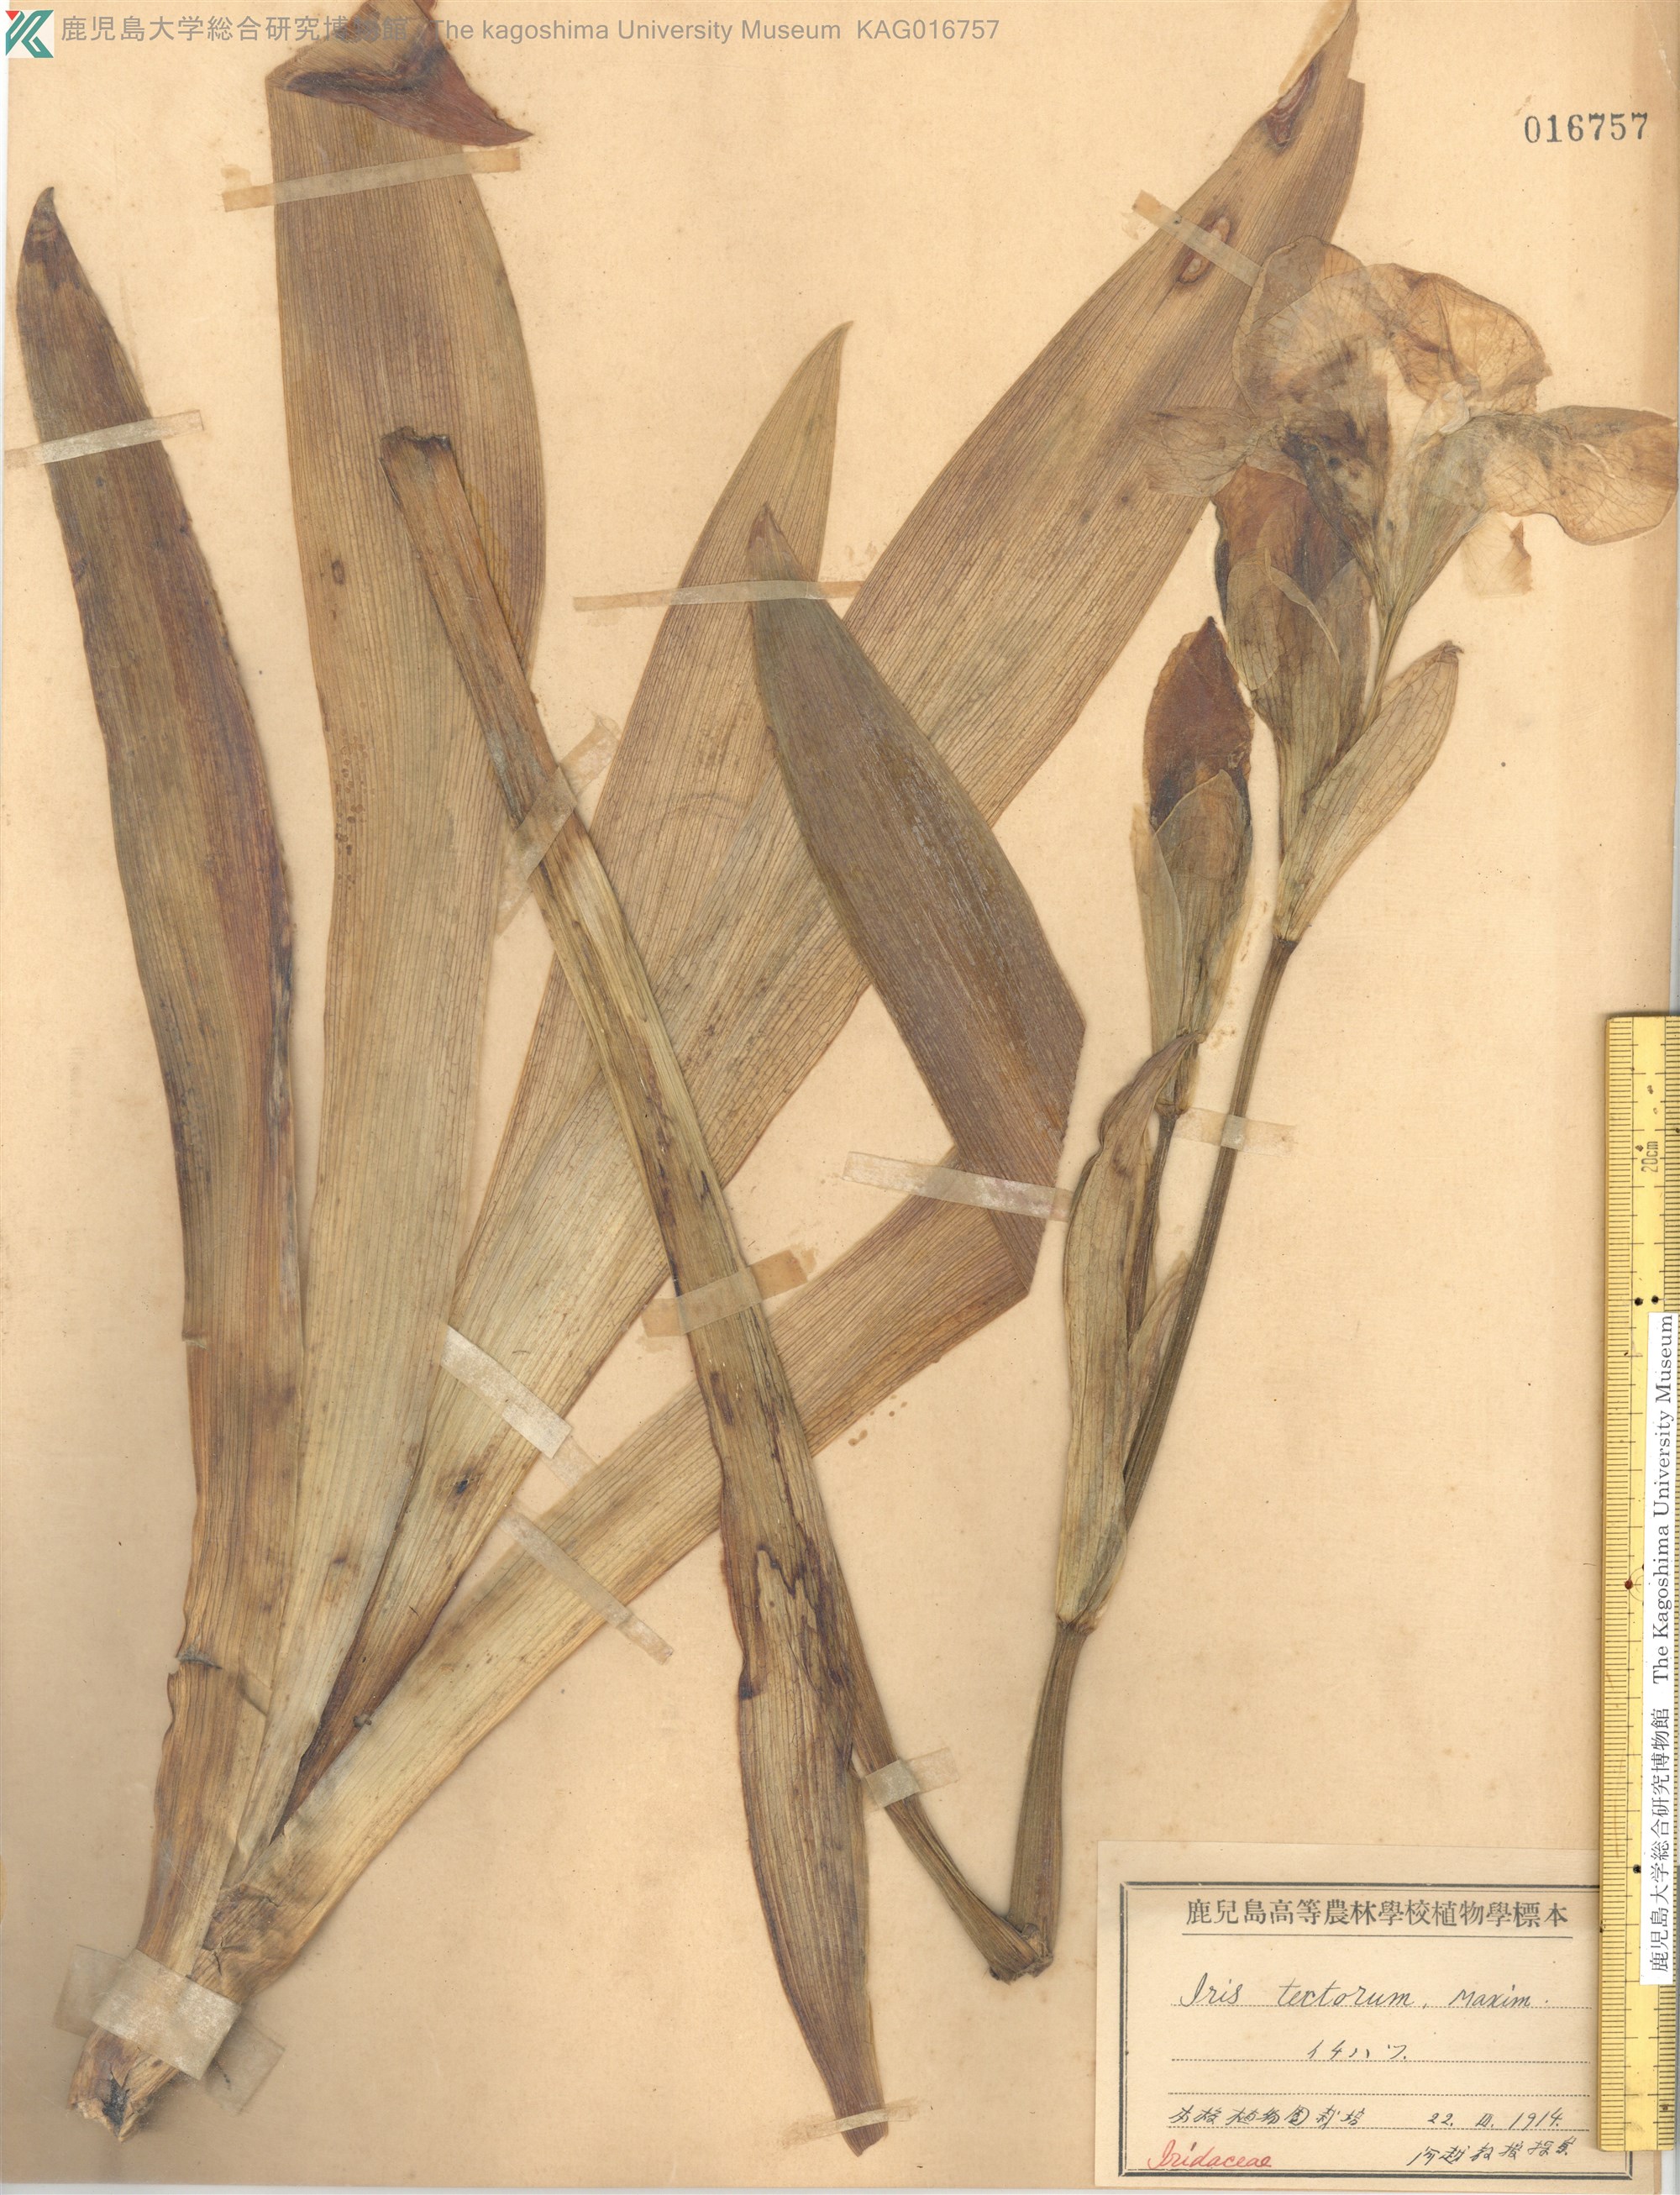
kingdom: Plantae
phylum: Tracheophyta
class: Liliopsida
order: Asparagales
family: Iridaceae
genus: Iris
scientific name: Iris tectorum
